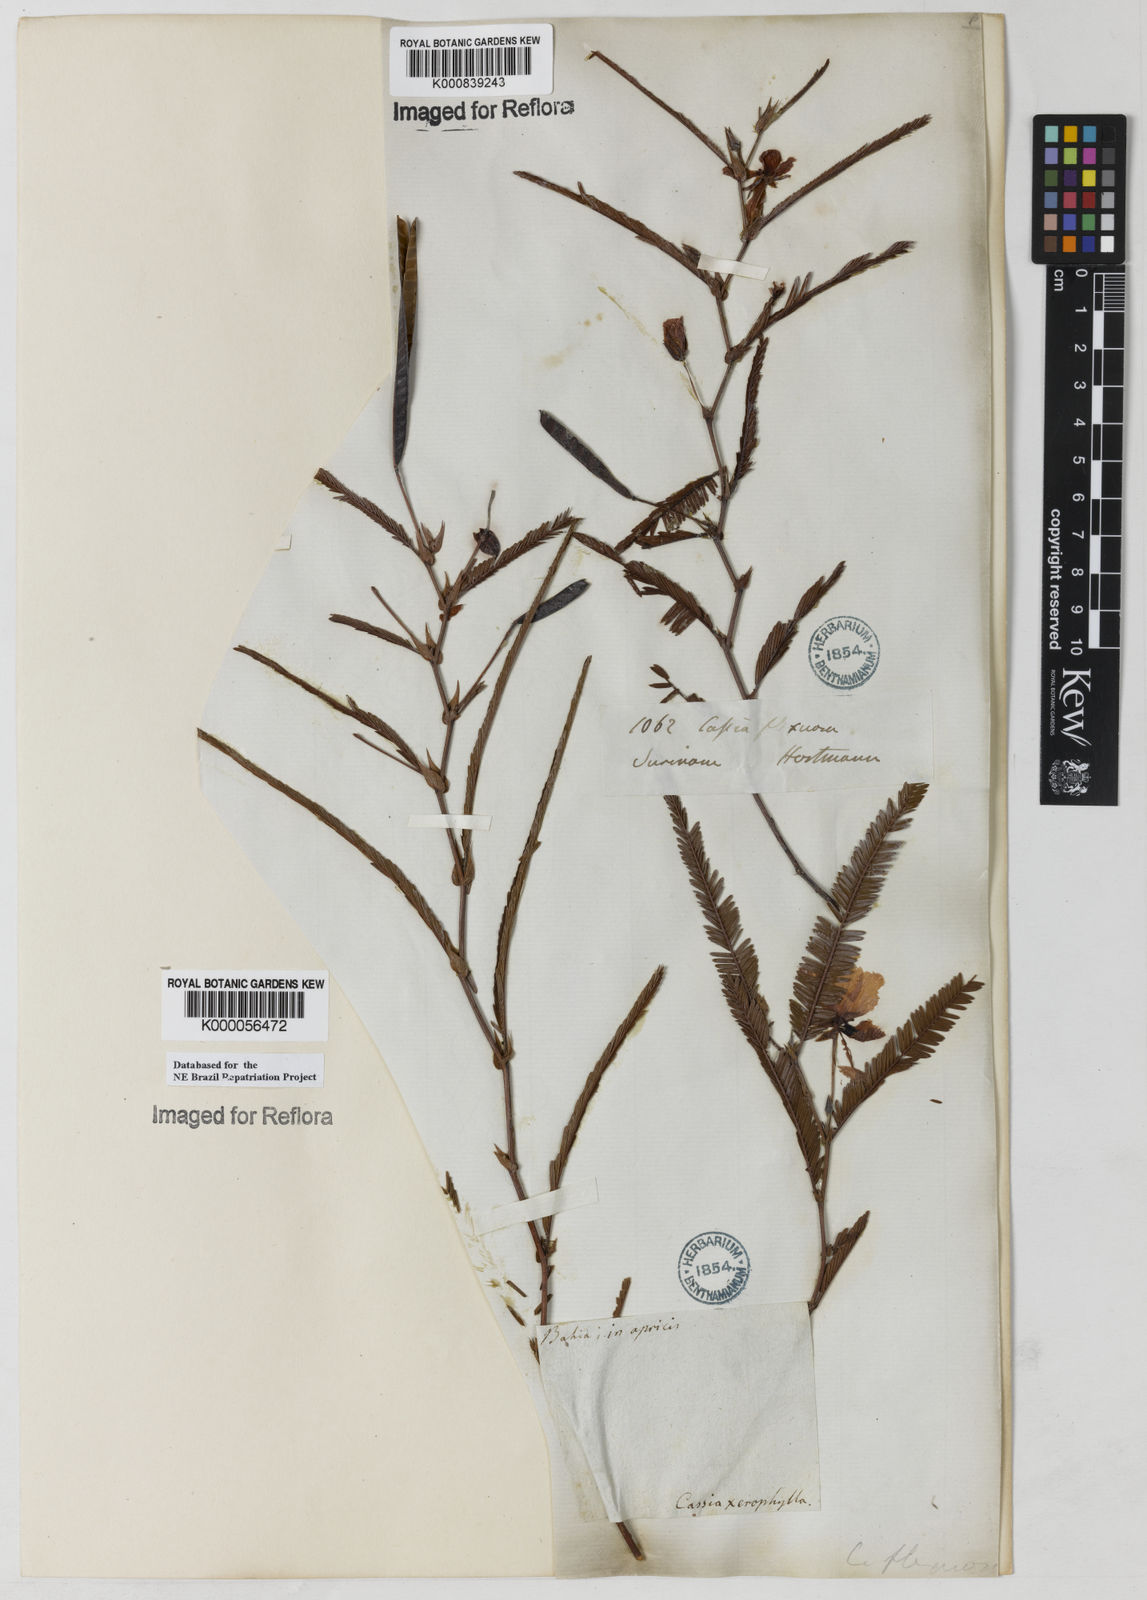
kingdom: Plantae
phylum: Tracheophyta
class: Magnoliopsida
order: Fabales
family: Fabaceae
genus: Chamaecrista
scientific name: Chamaecrista flexuosa
